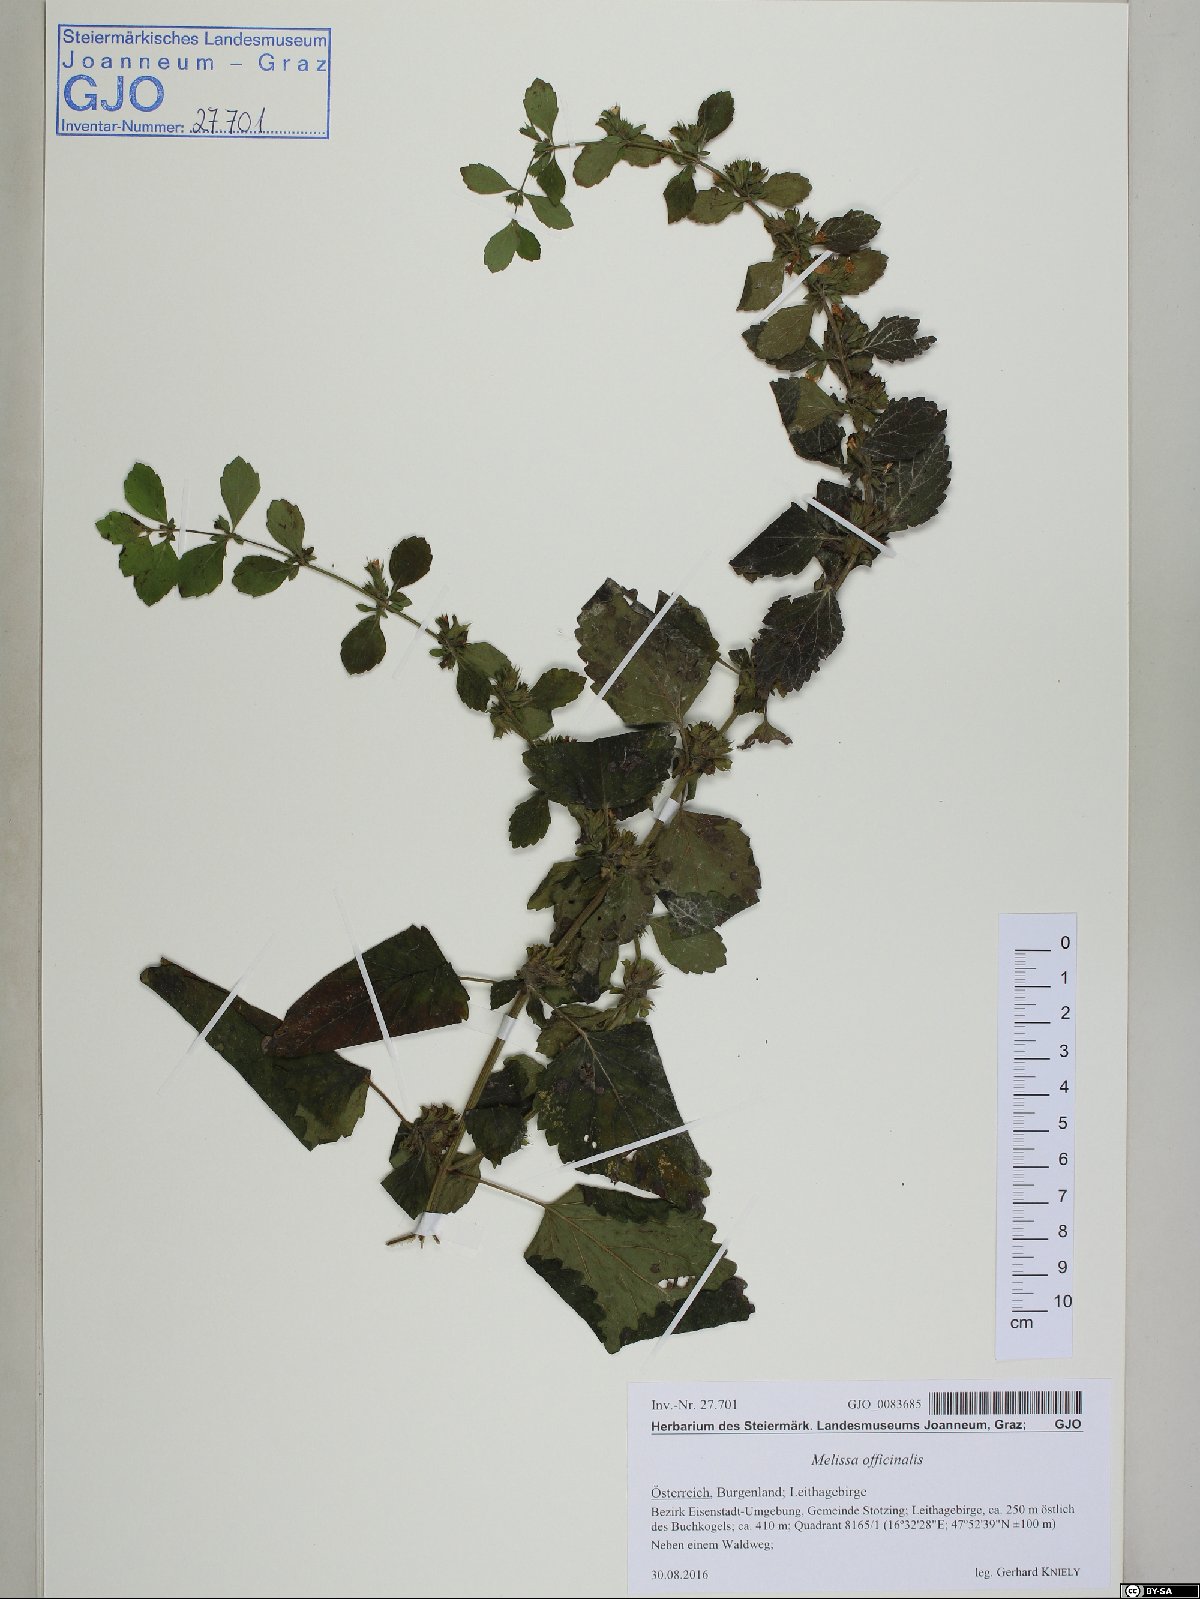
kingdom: Plantae
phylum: Tracheophyta
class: Magnoliopsida
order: Lamiales
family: Lamiaceae
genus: Melissa
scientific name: Melissa officinalis
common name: Balm
